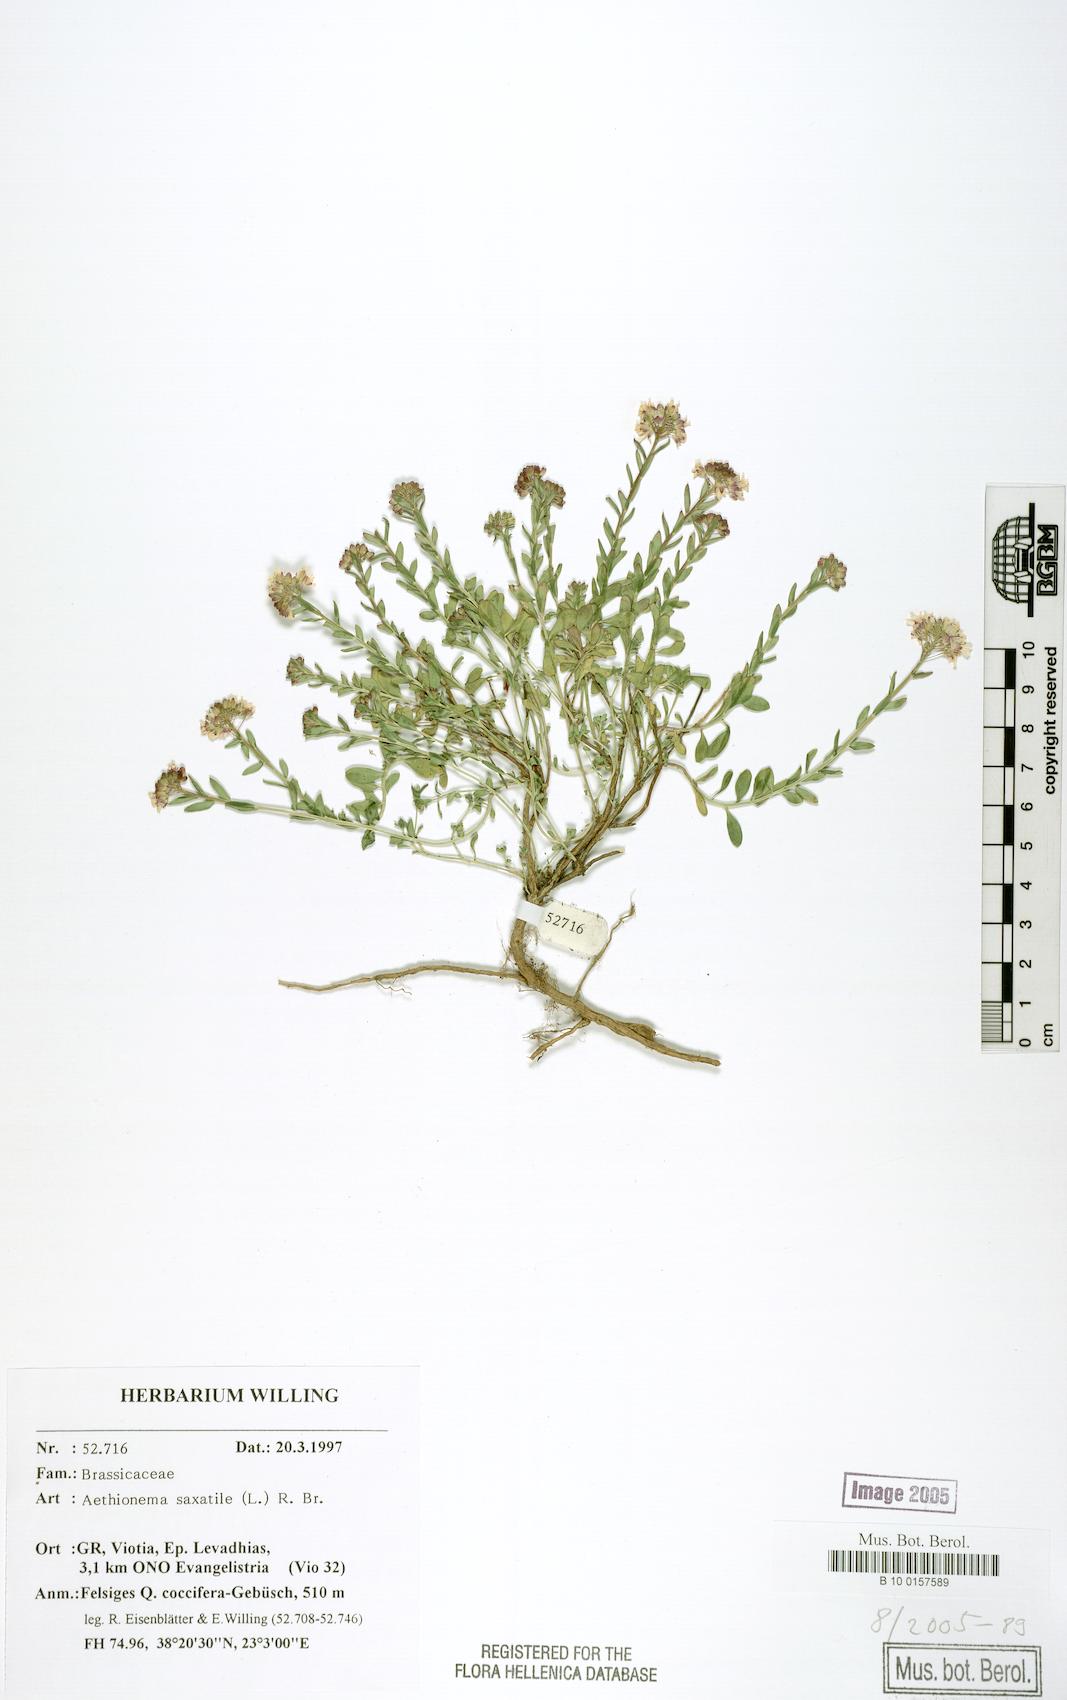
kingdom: Plantae
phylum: Tracheophyta
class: Magnoliopsida
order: Brassicales
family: Brassicaceae
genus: Aethionema
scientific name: Aethionema saxatile
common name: Burnt candytuft
